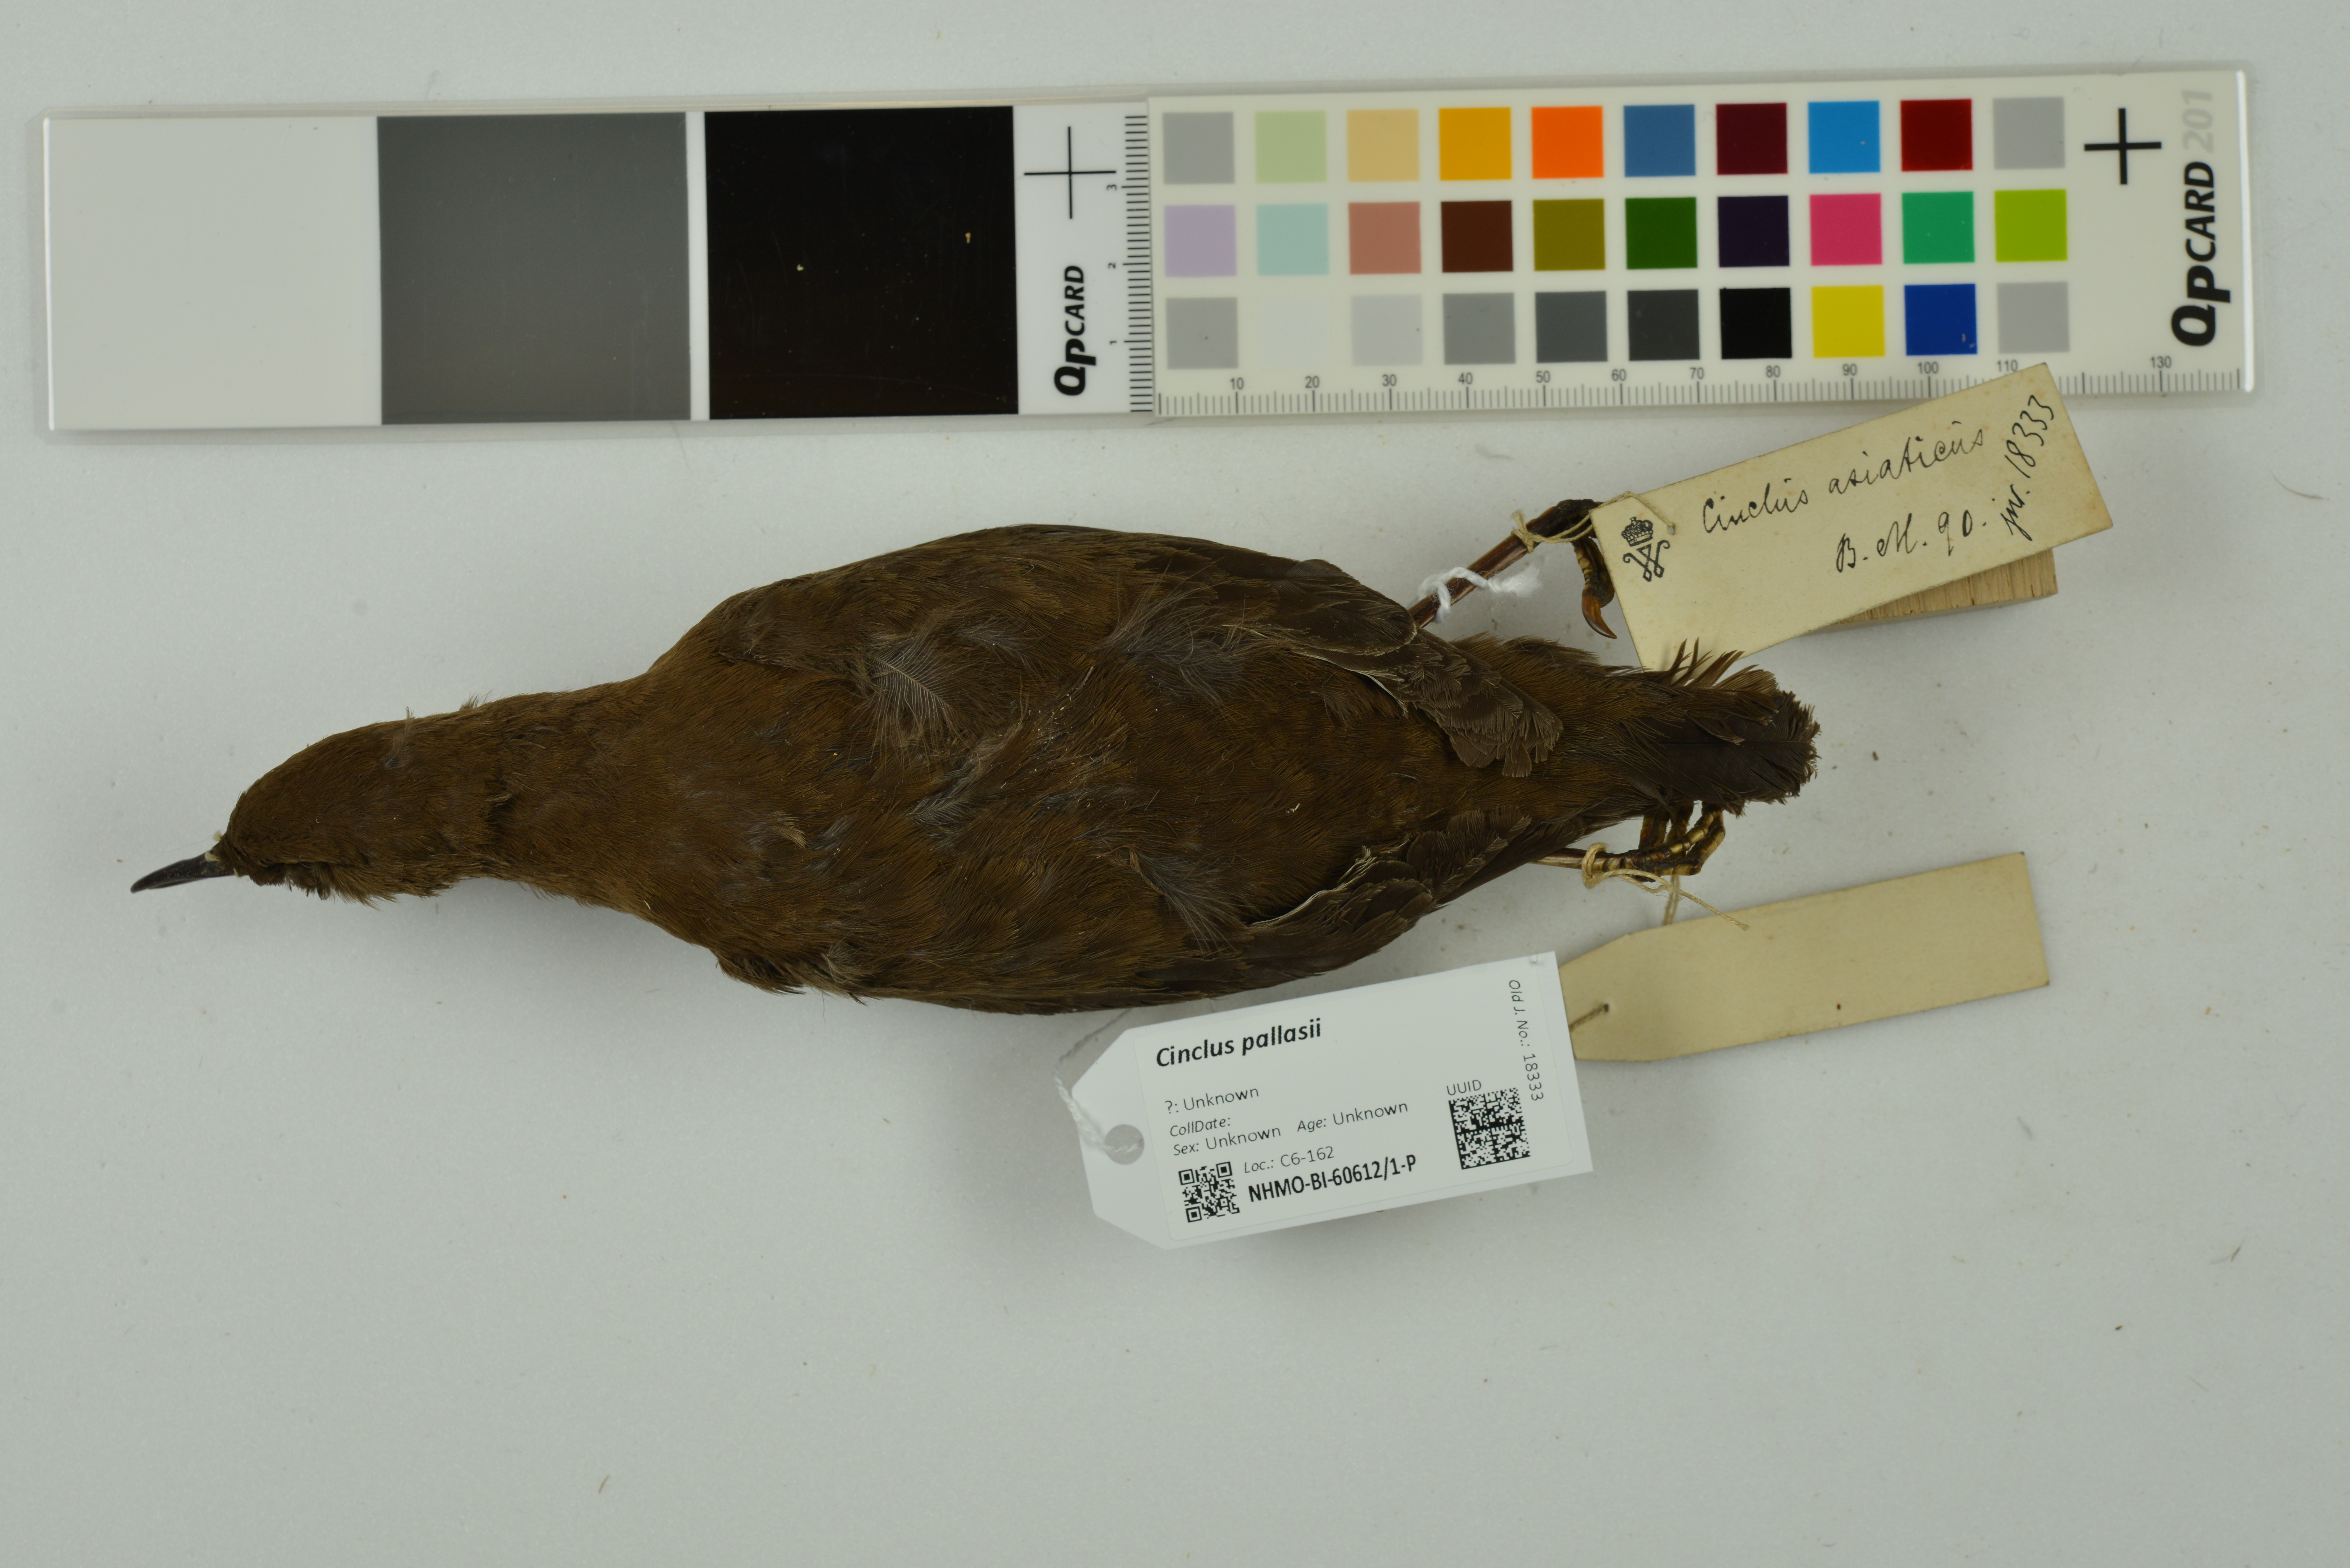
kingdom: Animalia
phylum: Chordata
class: Aves
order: Passeriformes
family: Cinclidae
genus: Cinclus
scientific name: Cinclus pallasii
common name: Brown dipper
